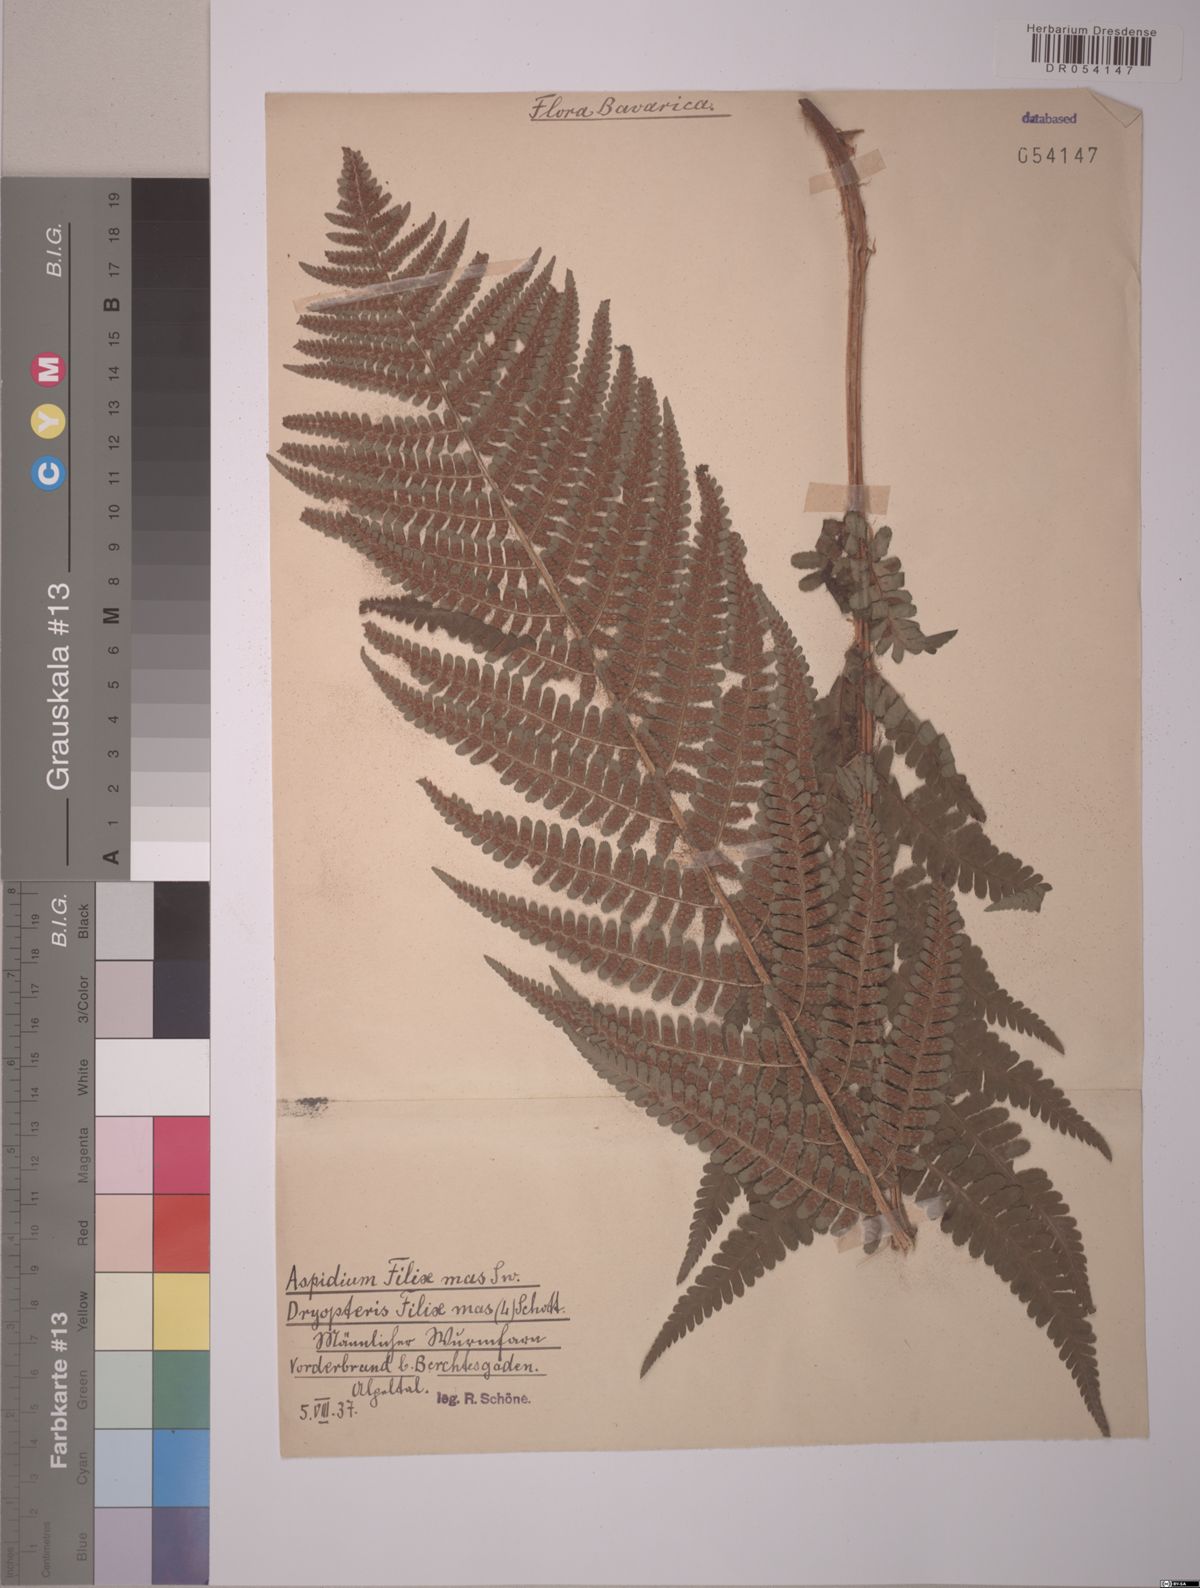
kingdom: Plantae
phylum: Tracheophyta
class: Polypodiopsida
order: Polypodiales
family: Dryopteridaceae
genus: Dryopteris
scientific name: Dryopteris filix-mas
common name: Male fern
